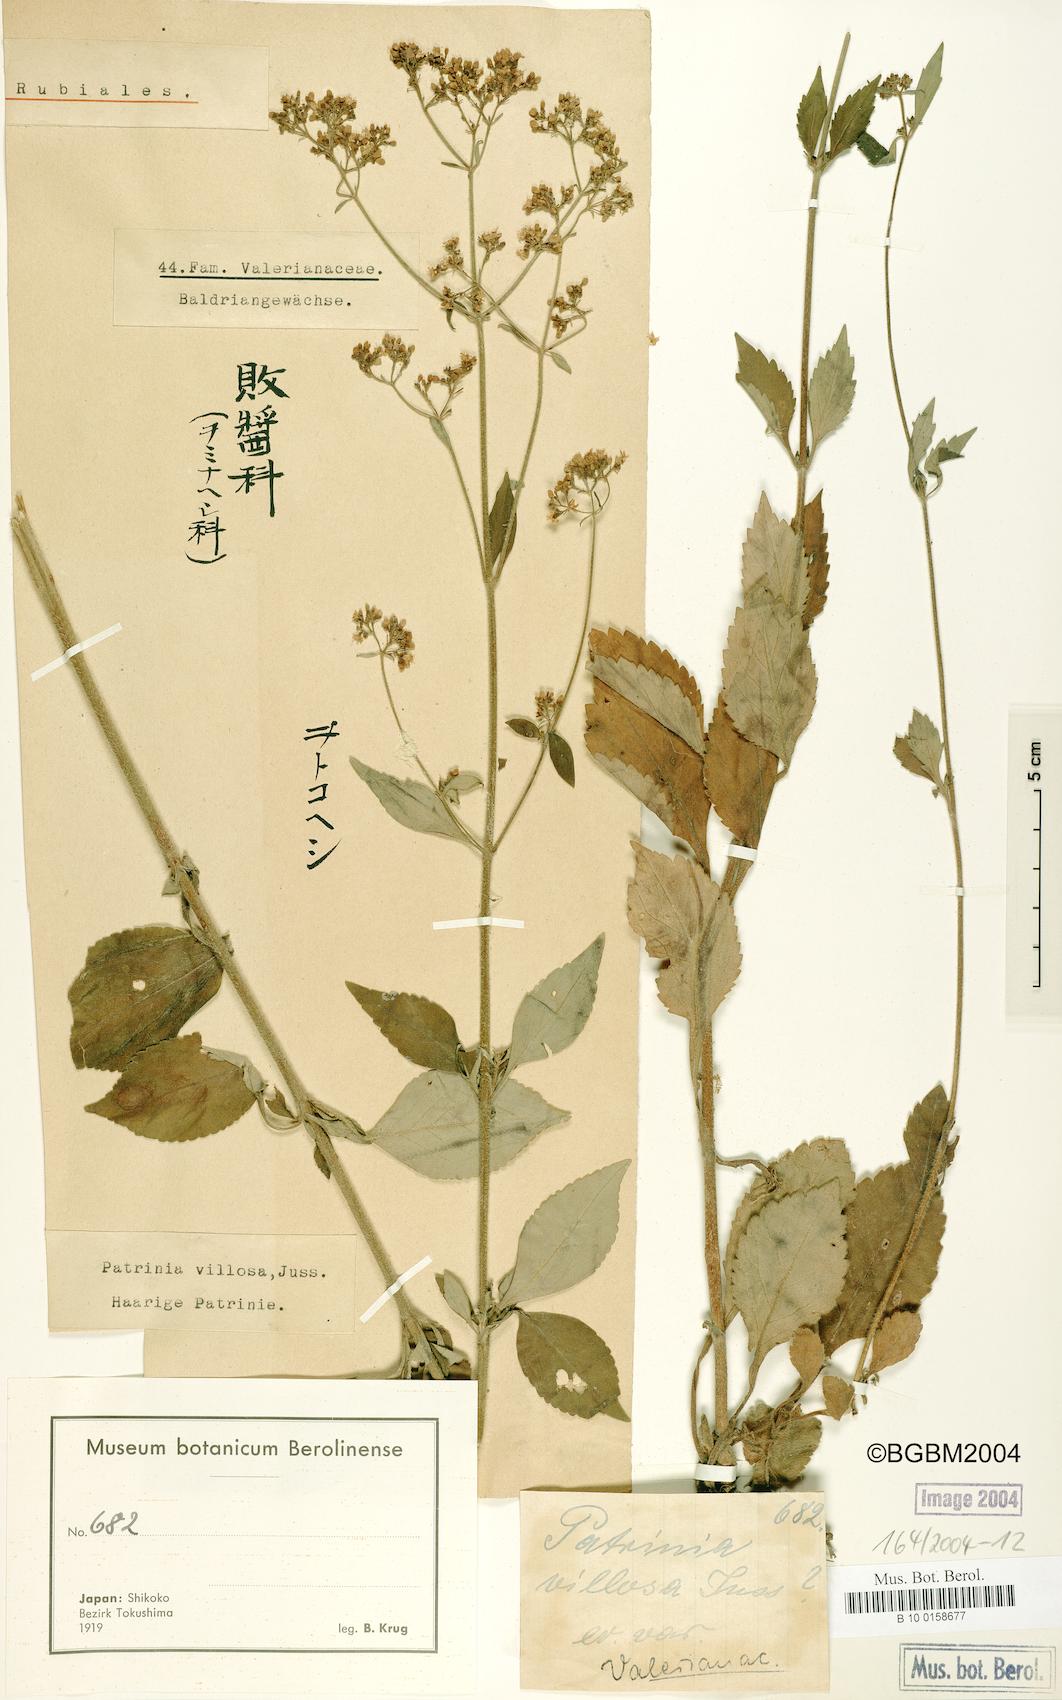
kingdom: Plantae
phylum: Tracheophyta
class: Magnoliopsida
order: Dipsacales
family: Caprifoliaceae
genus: Patrinia
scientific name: Patrinia villosa
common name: Patrinia
